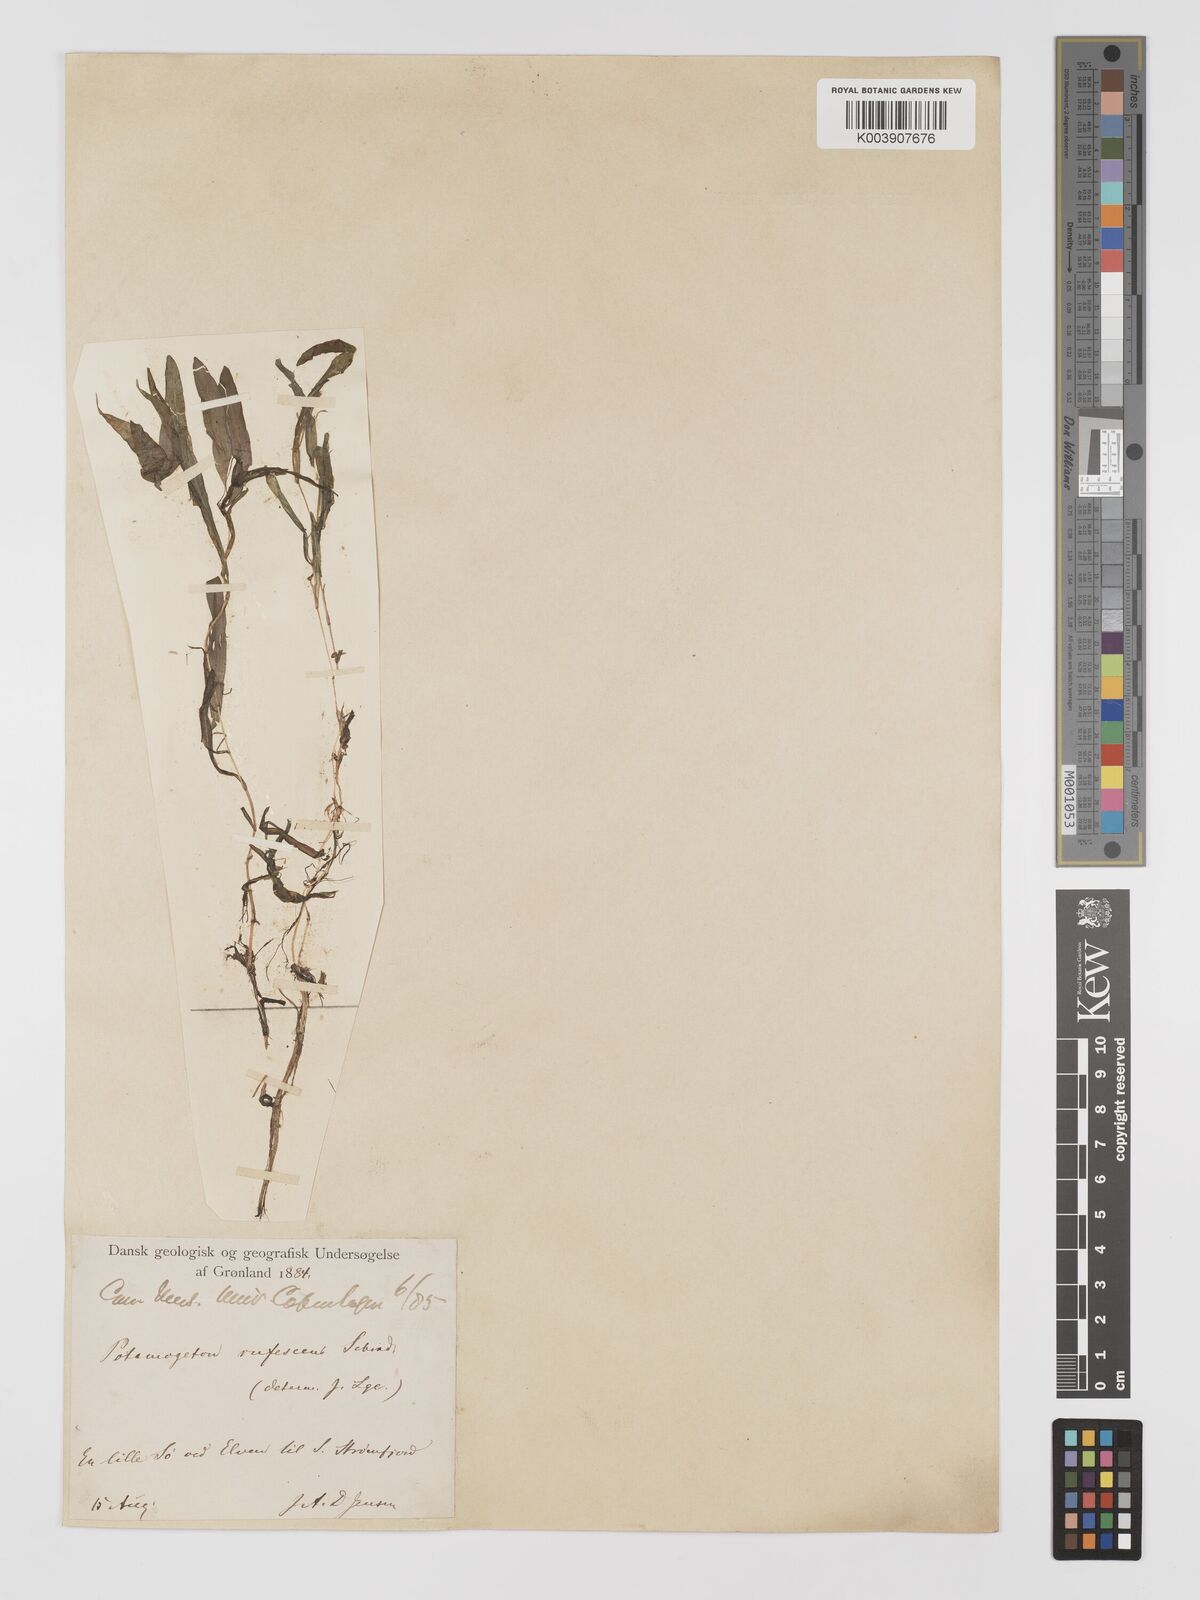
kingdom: Plantae
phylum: Tracheophyta
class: Liliopsida
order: Alismatales
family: Potamogetonaceae
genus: Potamogeton
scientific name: Potamogeton alpinus
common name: Red pondweed
